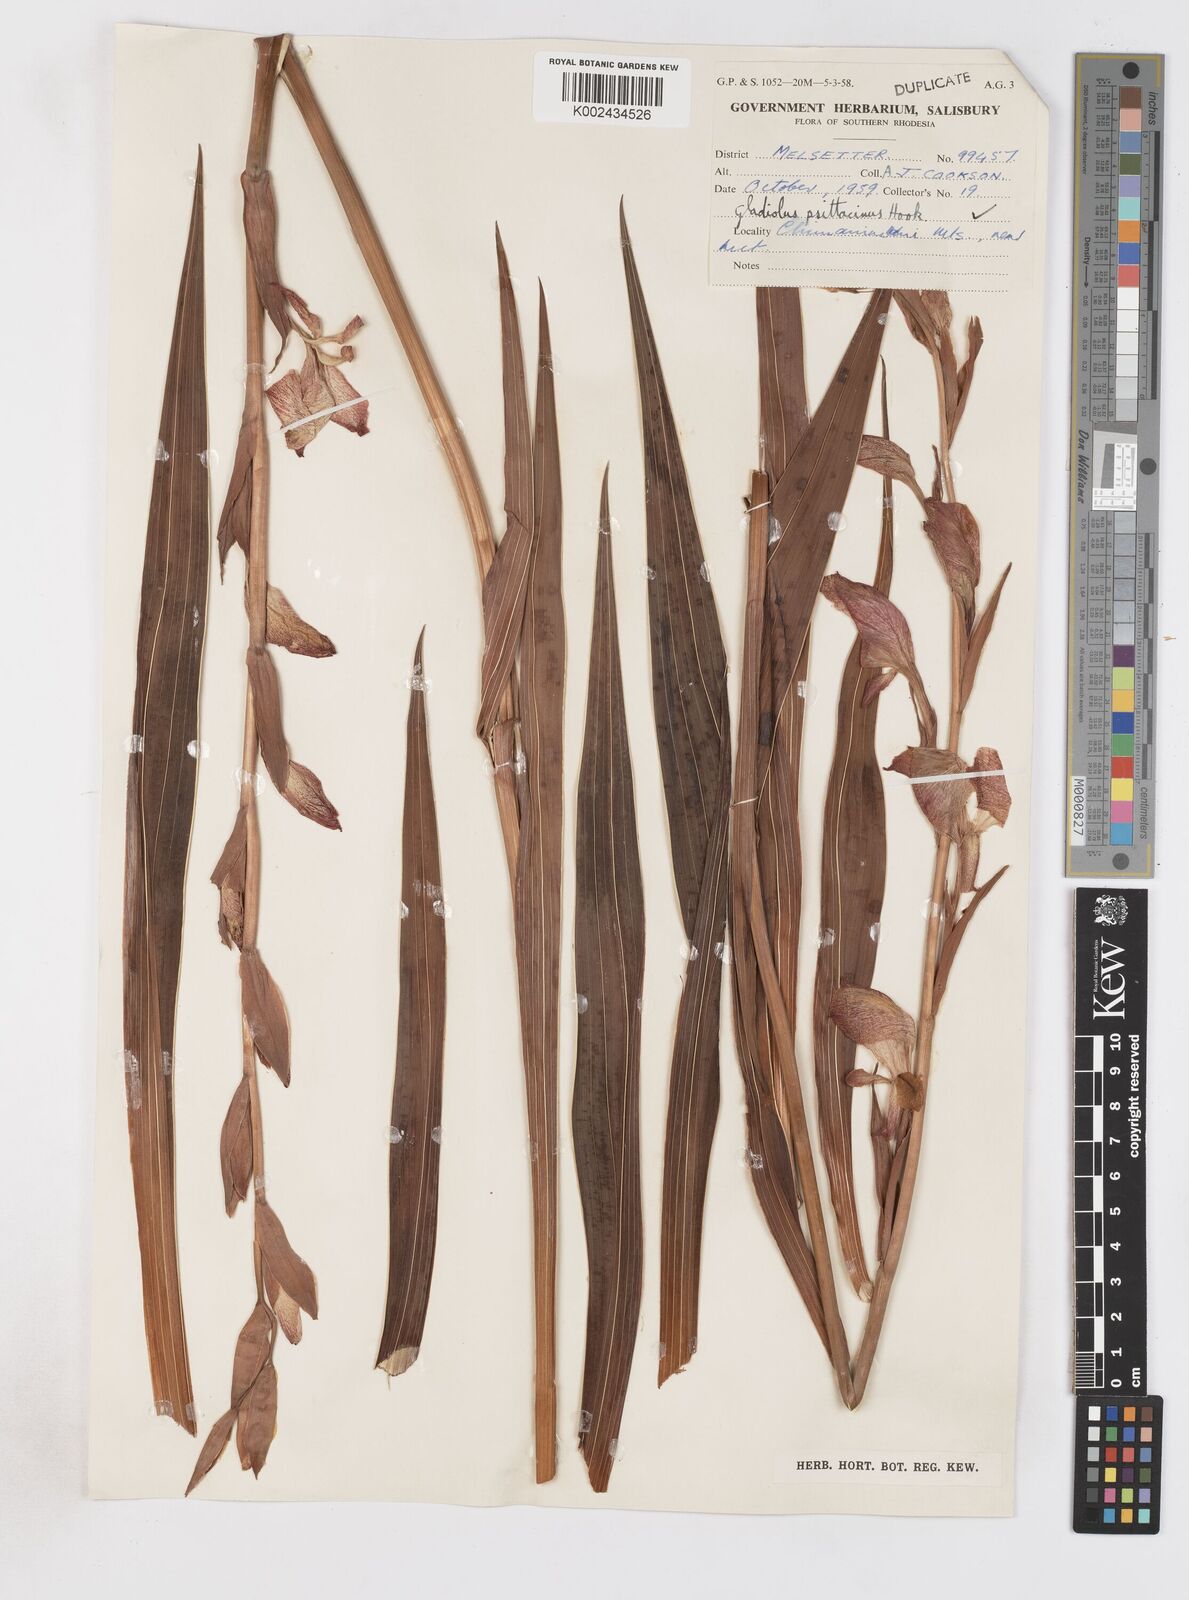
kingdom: Plantae
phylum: Tracheophyta
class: Liliopsida
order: Asparagales
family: Iridaceae
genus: Gladiolus
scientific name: Gladiolus dalenii
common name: Cornflag
